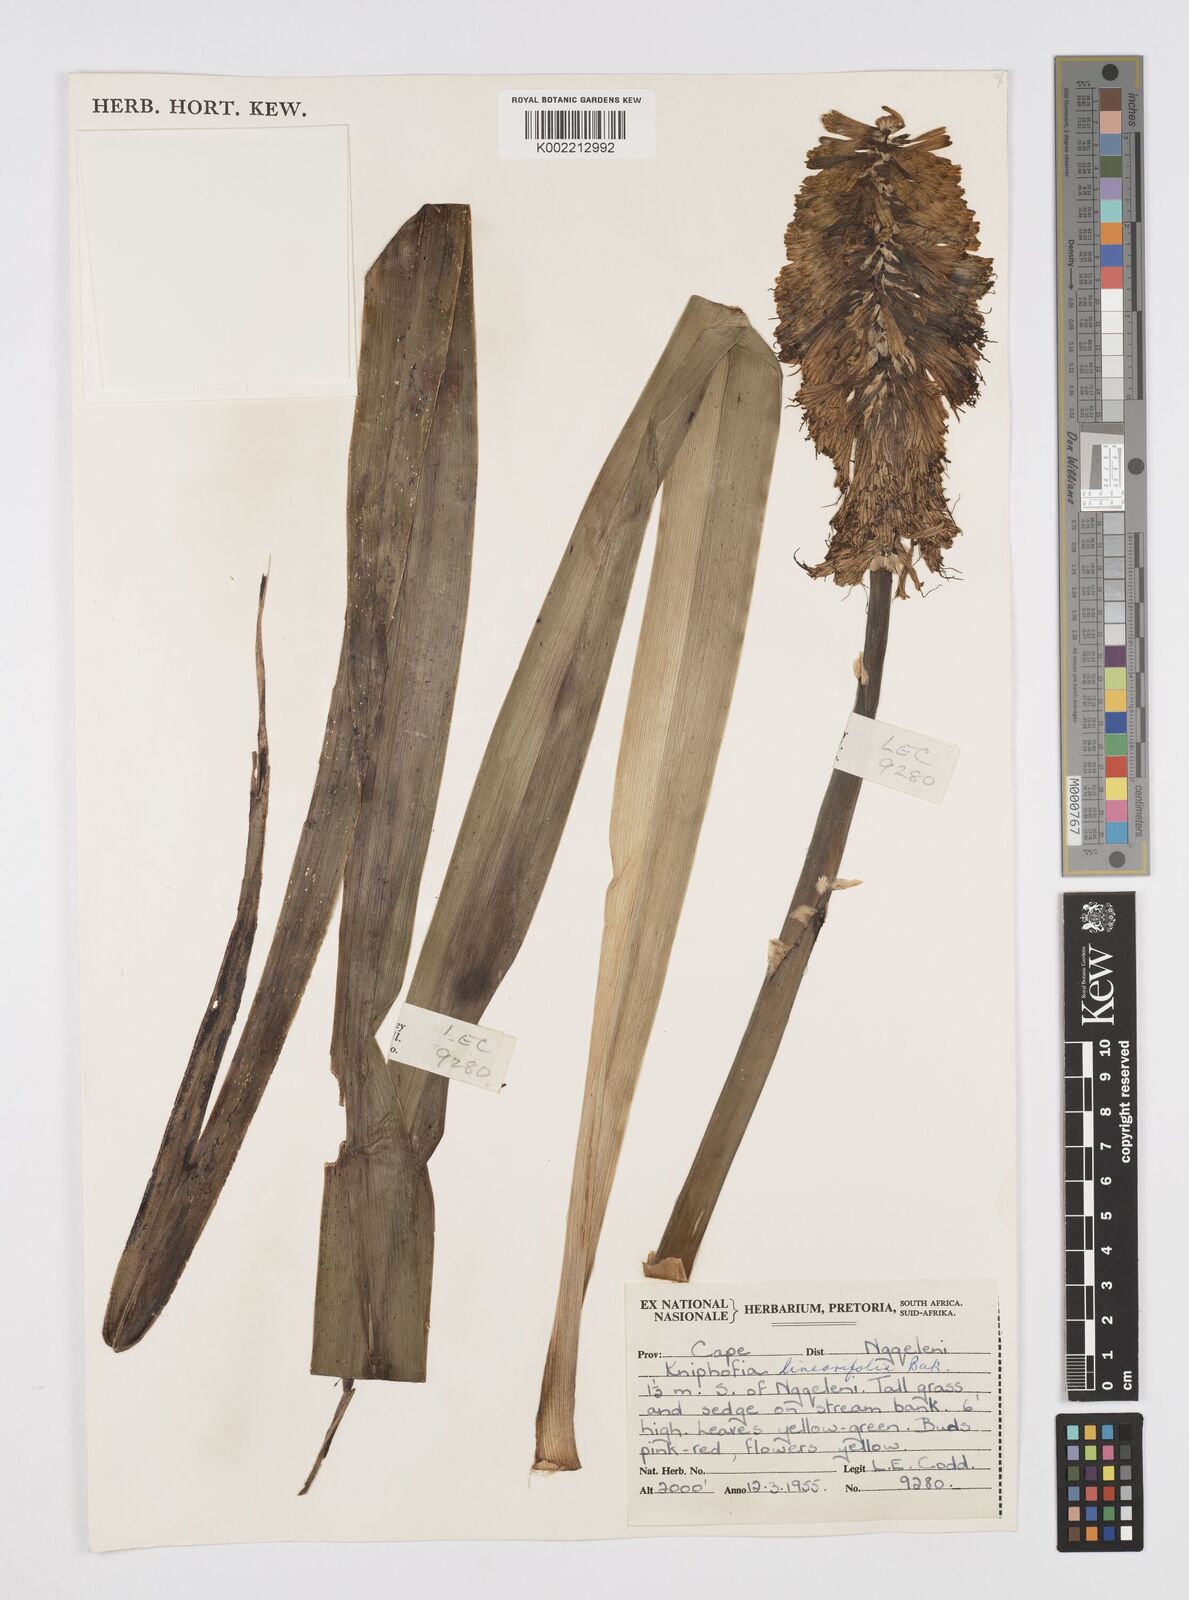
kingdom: Plantae
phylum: Tracheophyta
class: Liliopsida
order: Asparagales
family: Asphodelaceae
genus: Kniphofia
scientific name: Kniphofia linearifolia
